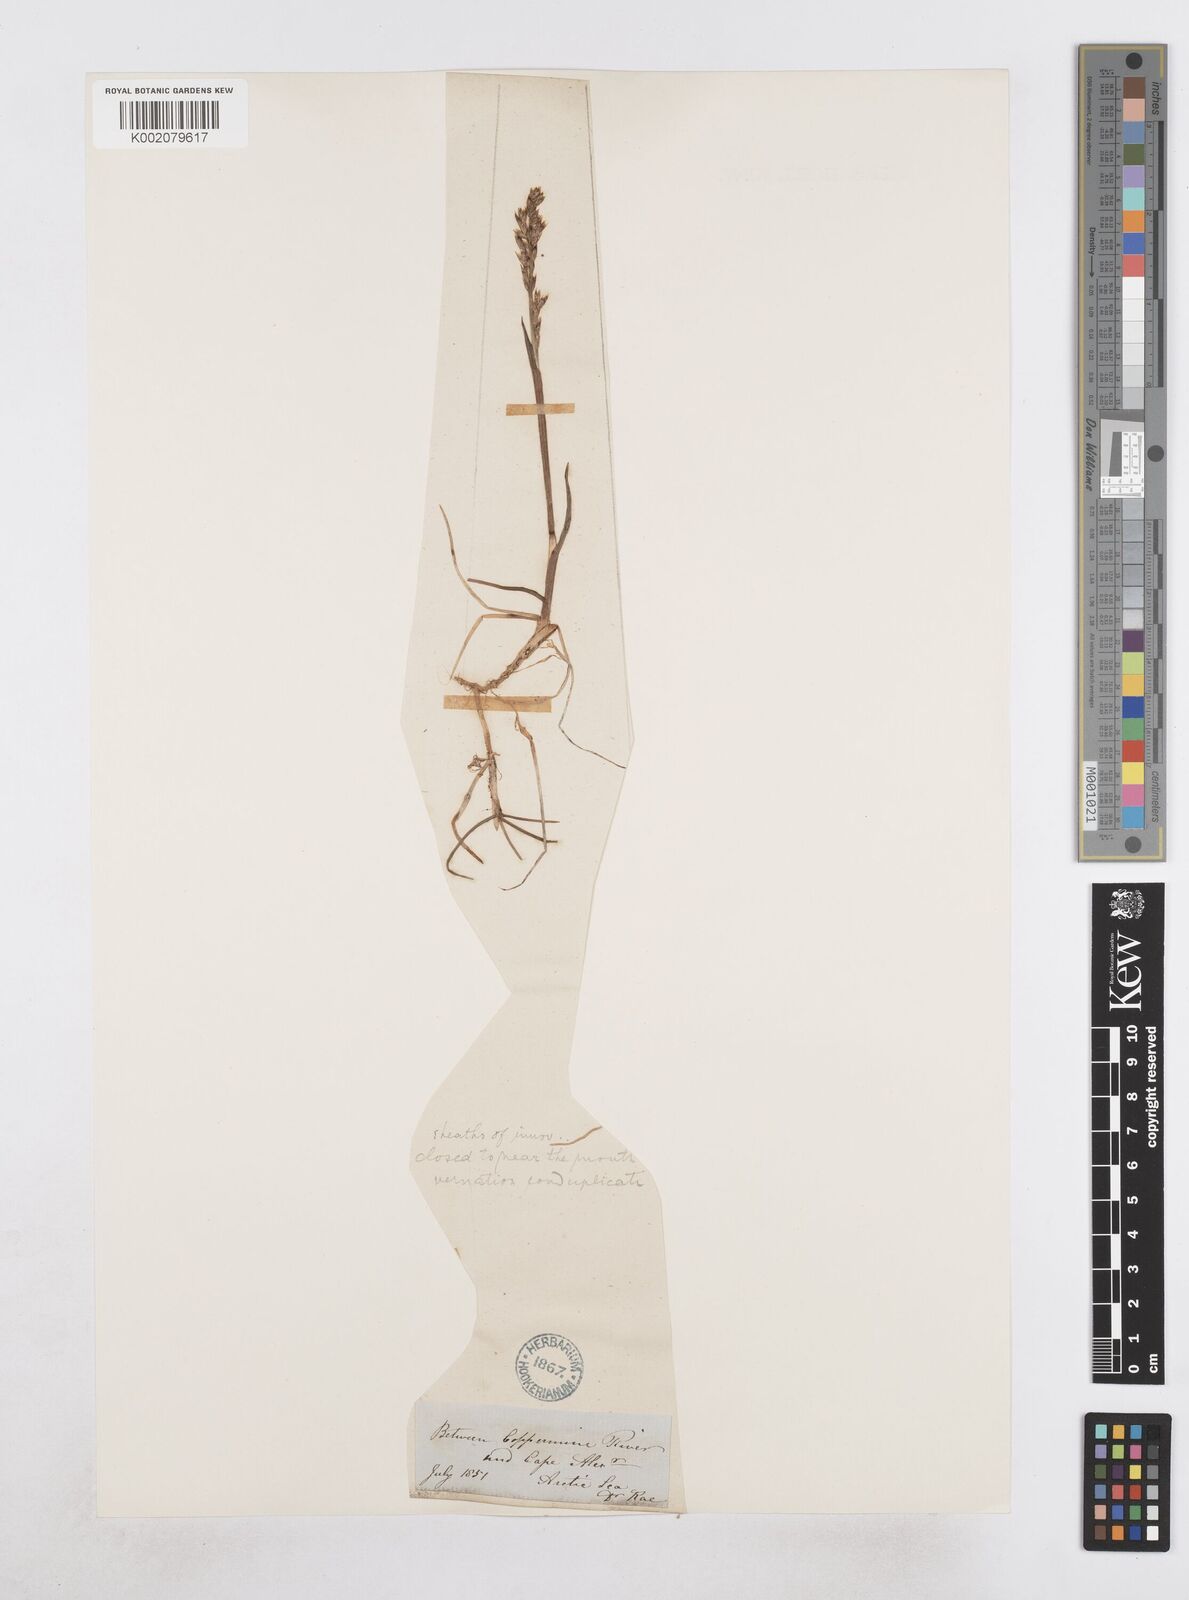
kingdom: Plantae
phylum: Tracheophyta
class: Liliopsida
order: Poales
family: Poaceae
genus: Dupontia
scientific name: Dupontia fisheri
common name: Tundra grass
